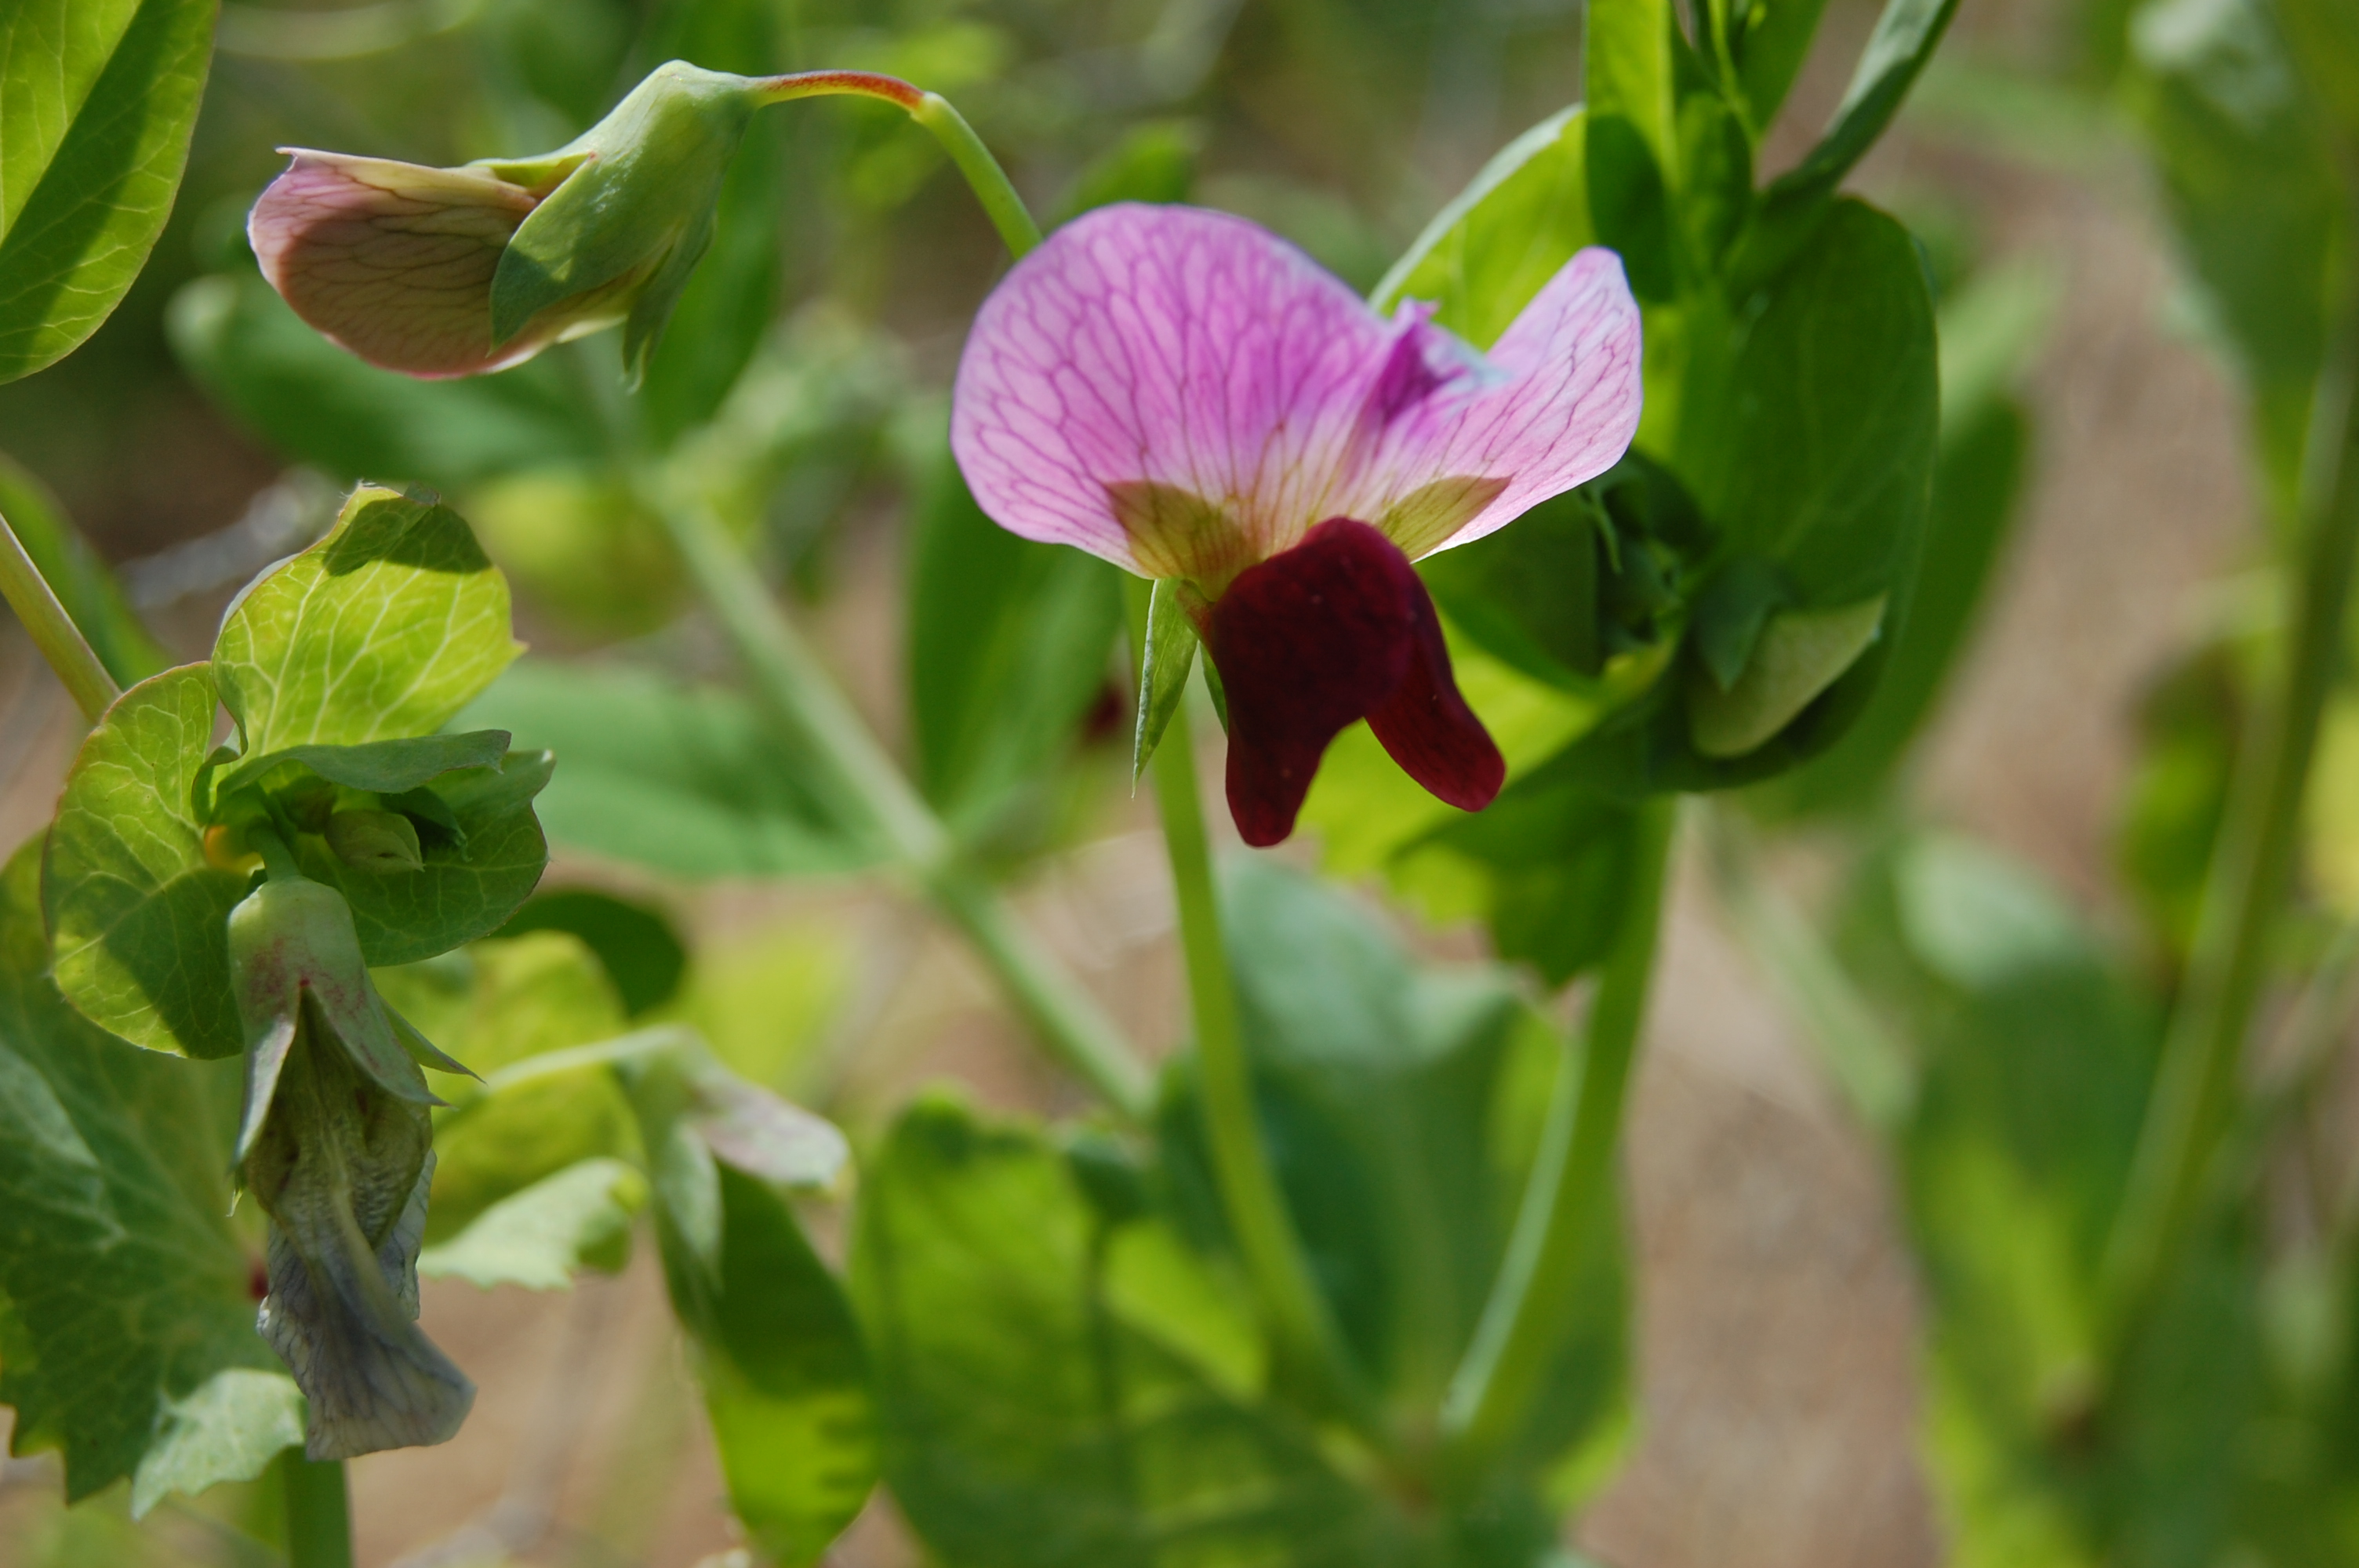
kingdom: Plantae
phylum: Tracheophyta
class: Magnoliopsida
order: Fabales
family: Fabaceae
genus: Lathyrus
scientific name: Lathyrus oleraceus
